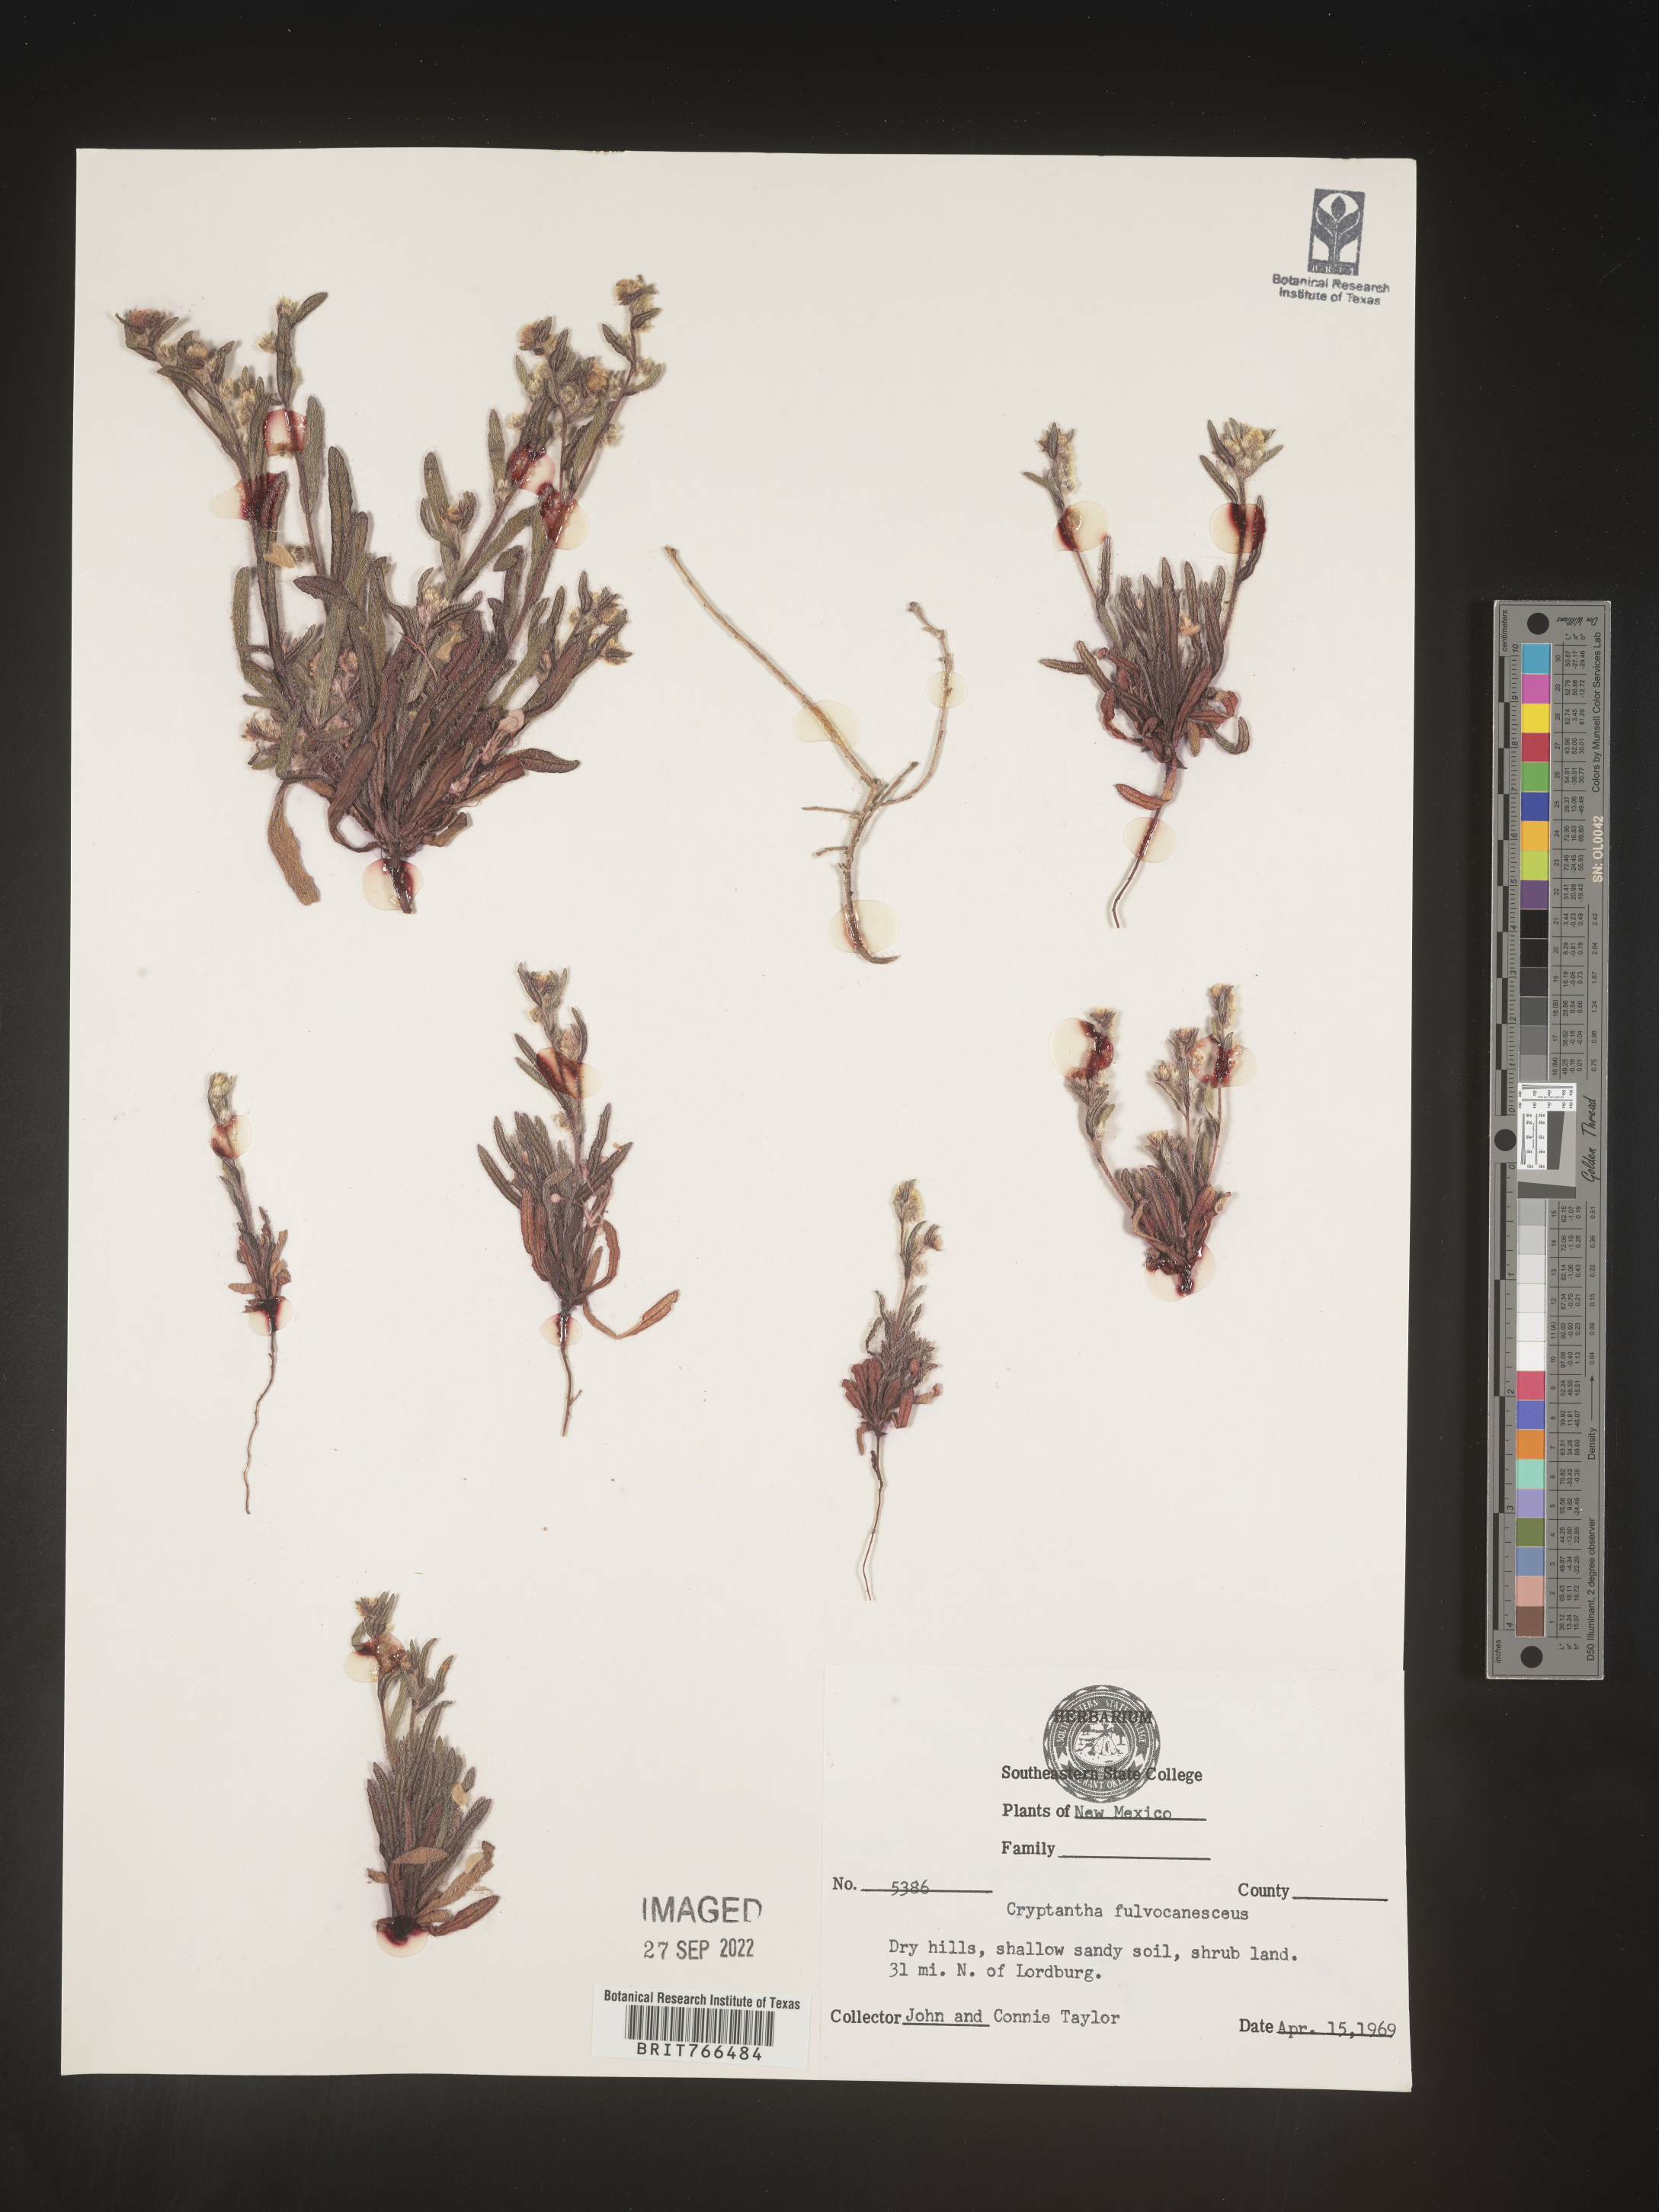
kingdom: Plantae
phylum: Tracheophyta
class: Magnoliopsida
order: Boraginales
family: Boraginaceae
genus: Oreocarya
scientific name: Oreocarya fulvocanescens
